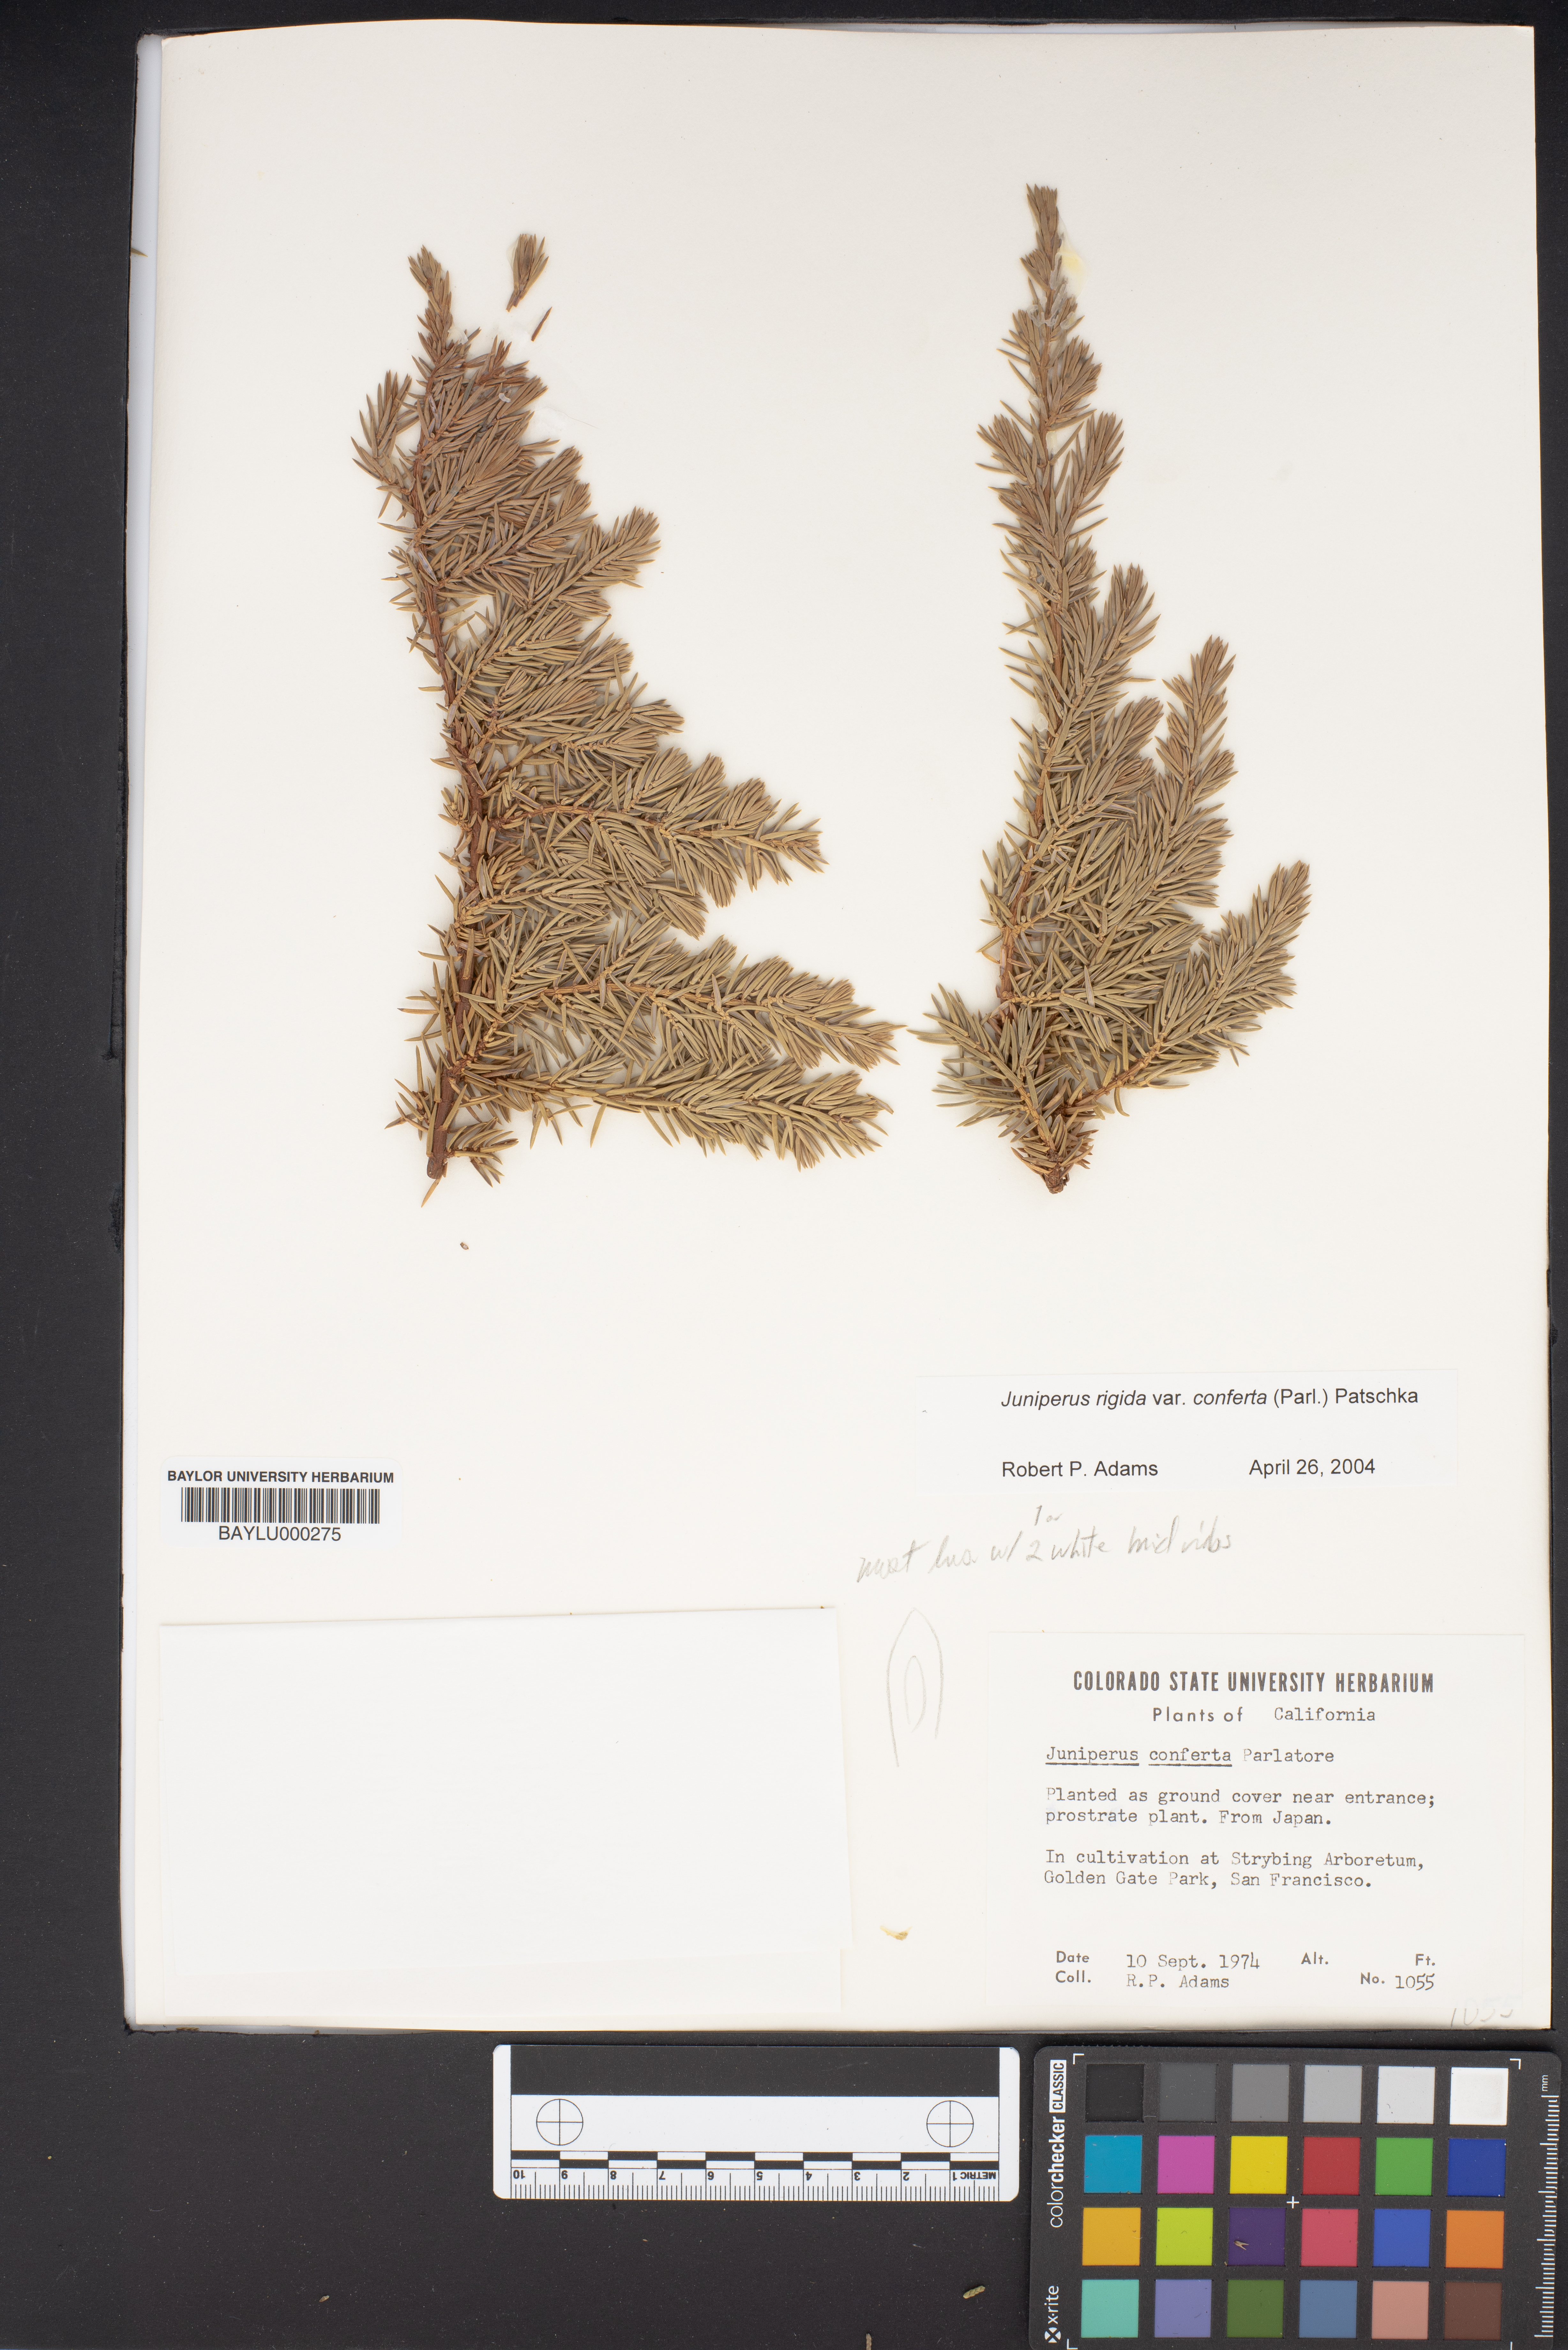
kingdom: Plantae
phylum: Tracheophyta
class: Pinopsida
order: Pinales
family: Cupressaceae
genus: Juniperus
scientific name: Juniperus rigida
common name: Needle juniper
